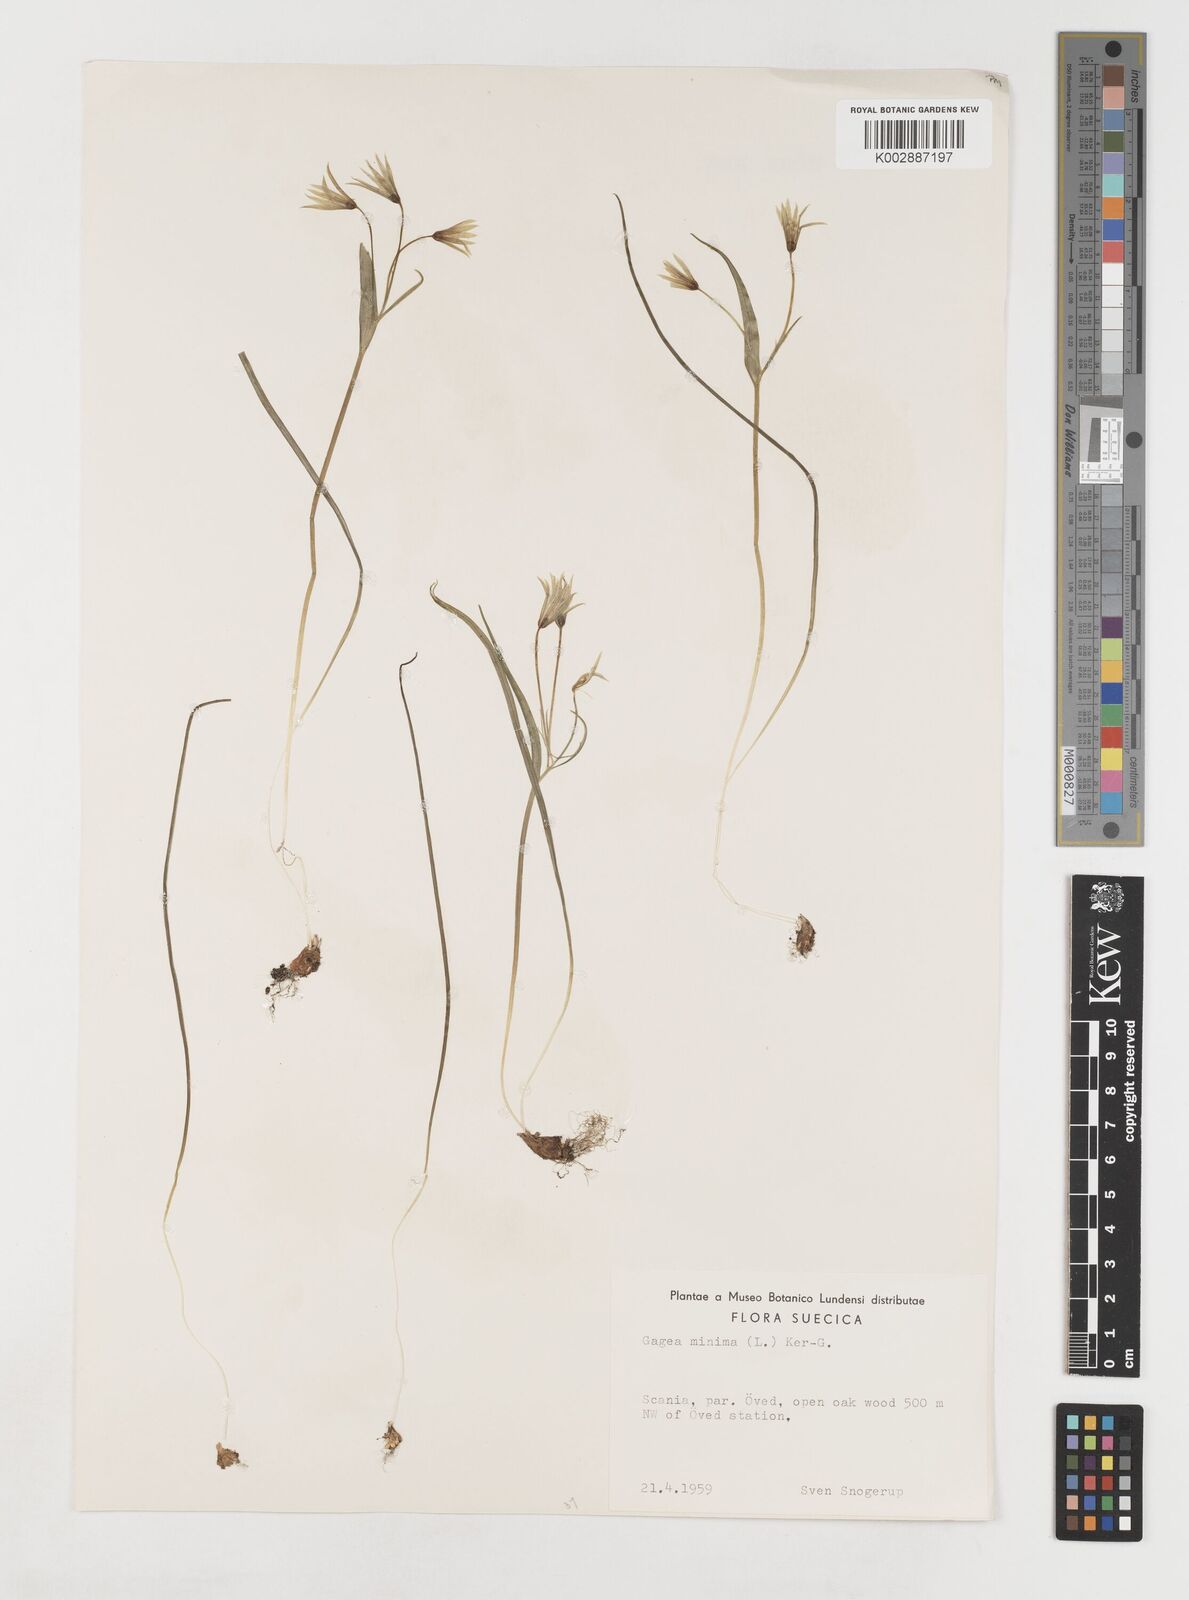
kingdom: Plantae
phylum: Tracheophyta
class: Liliopsida
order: Liliales
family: Liliaceae
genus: Gagea
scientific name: Gagea minima
